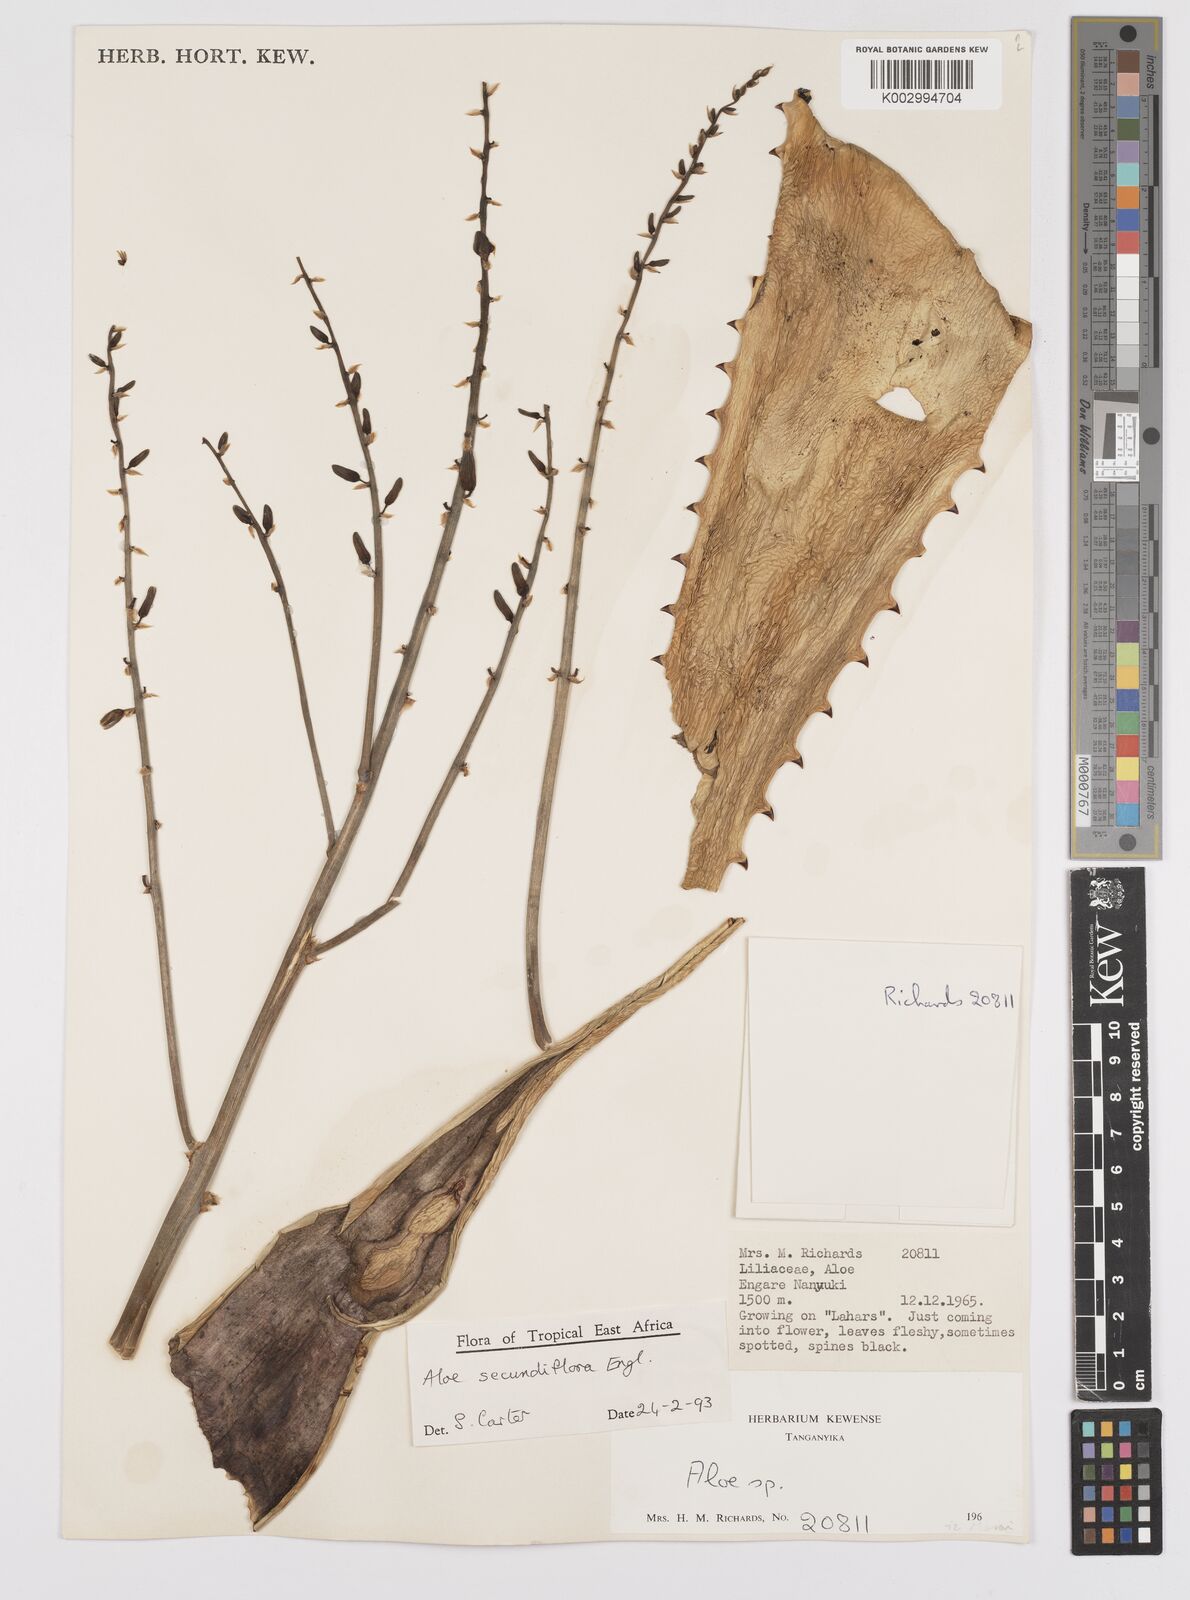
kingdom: Plantae
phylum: Tracheophyta
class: Liliopsida
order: Asparagales
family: Asphodelaceae
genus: Aloe
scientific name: Aloe secundiflora
